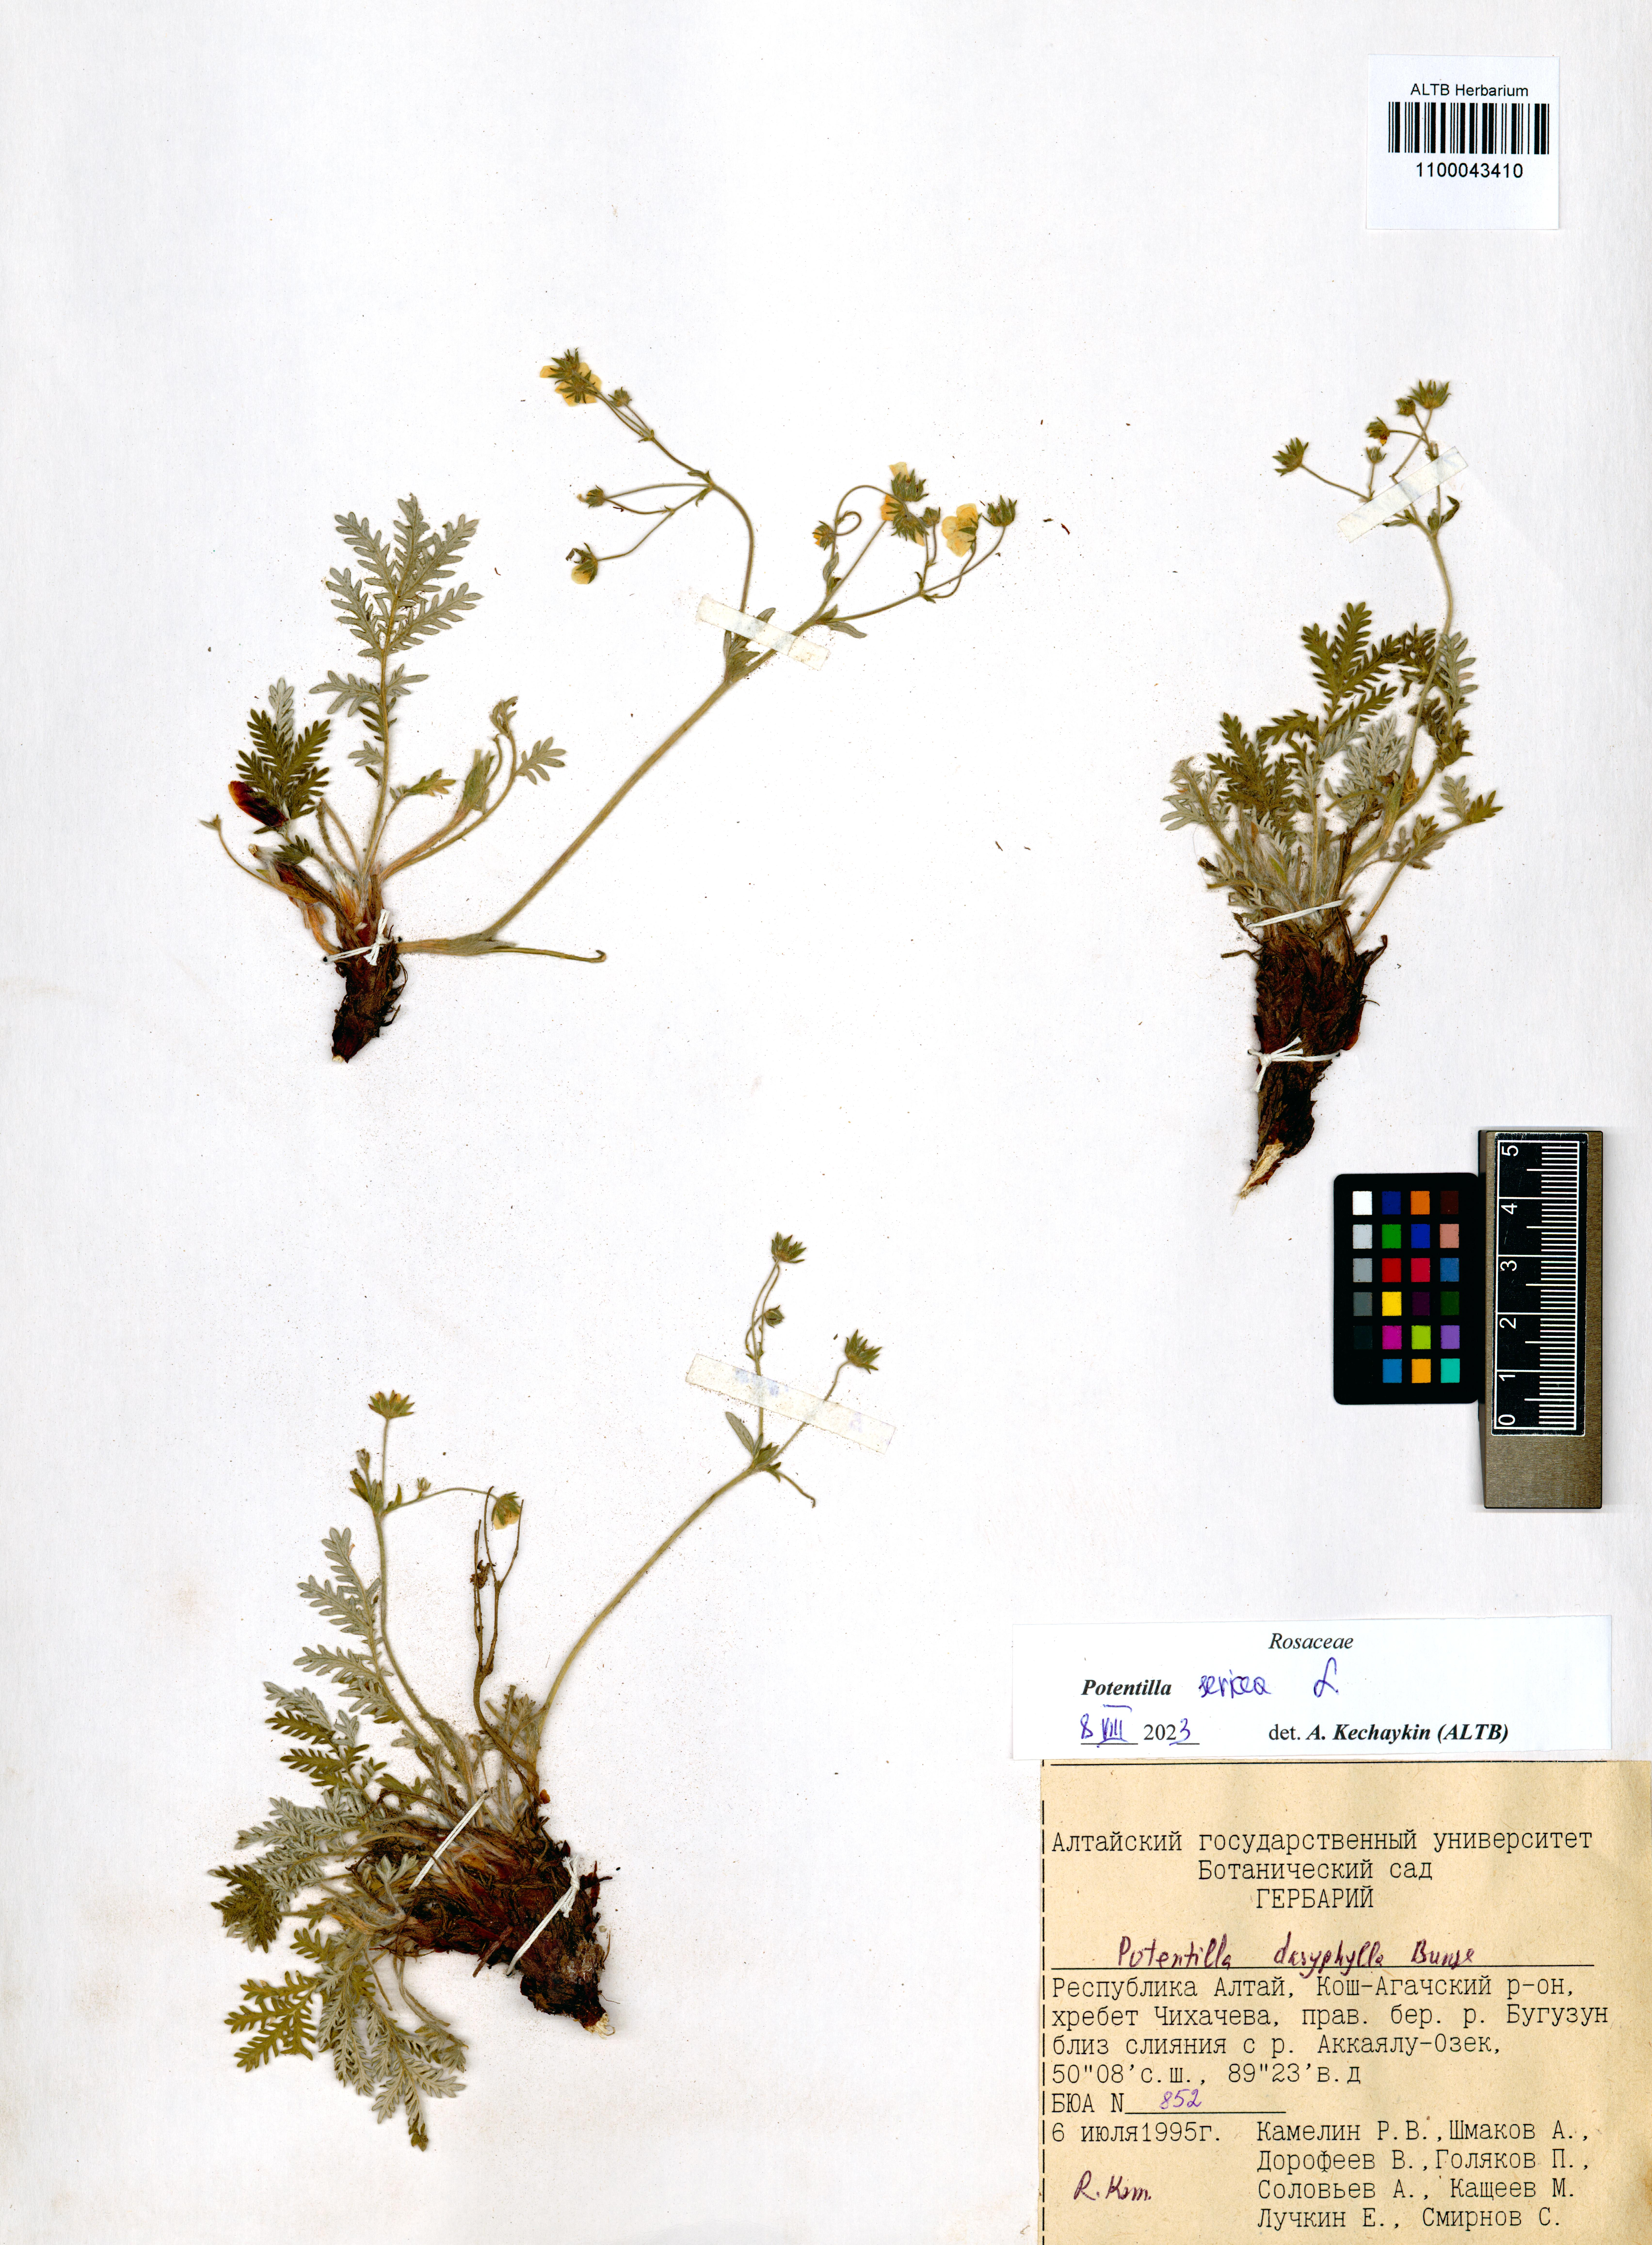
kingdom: Plantae
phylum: Tracheophyta
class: Magnoliopsida
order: Rosales
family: Rosaceae
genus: Potentilla
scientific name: Potentilla sericea
